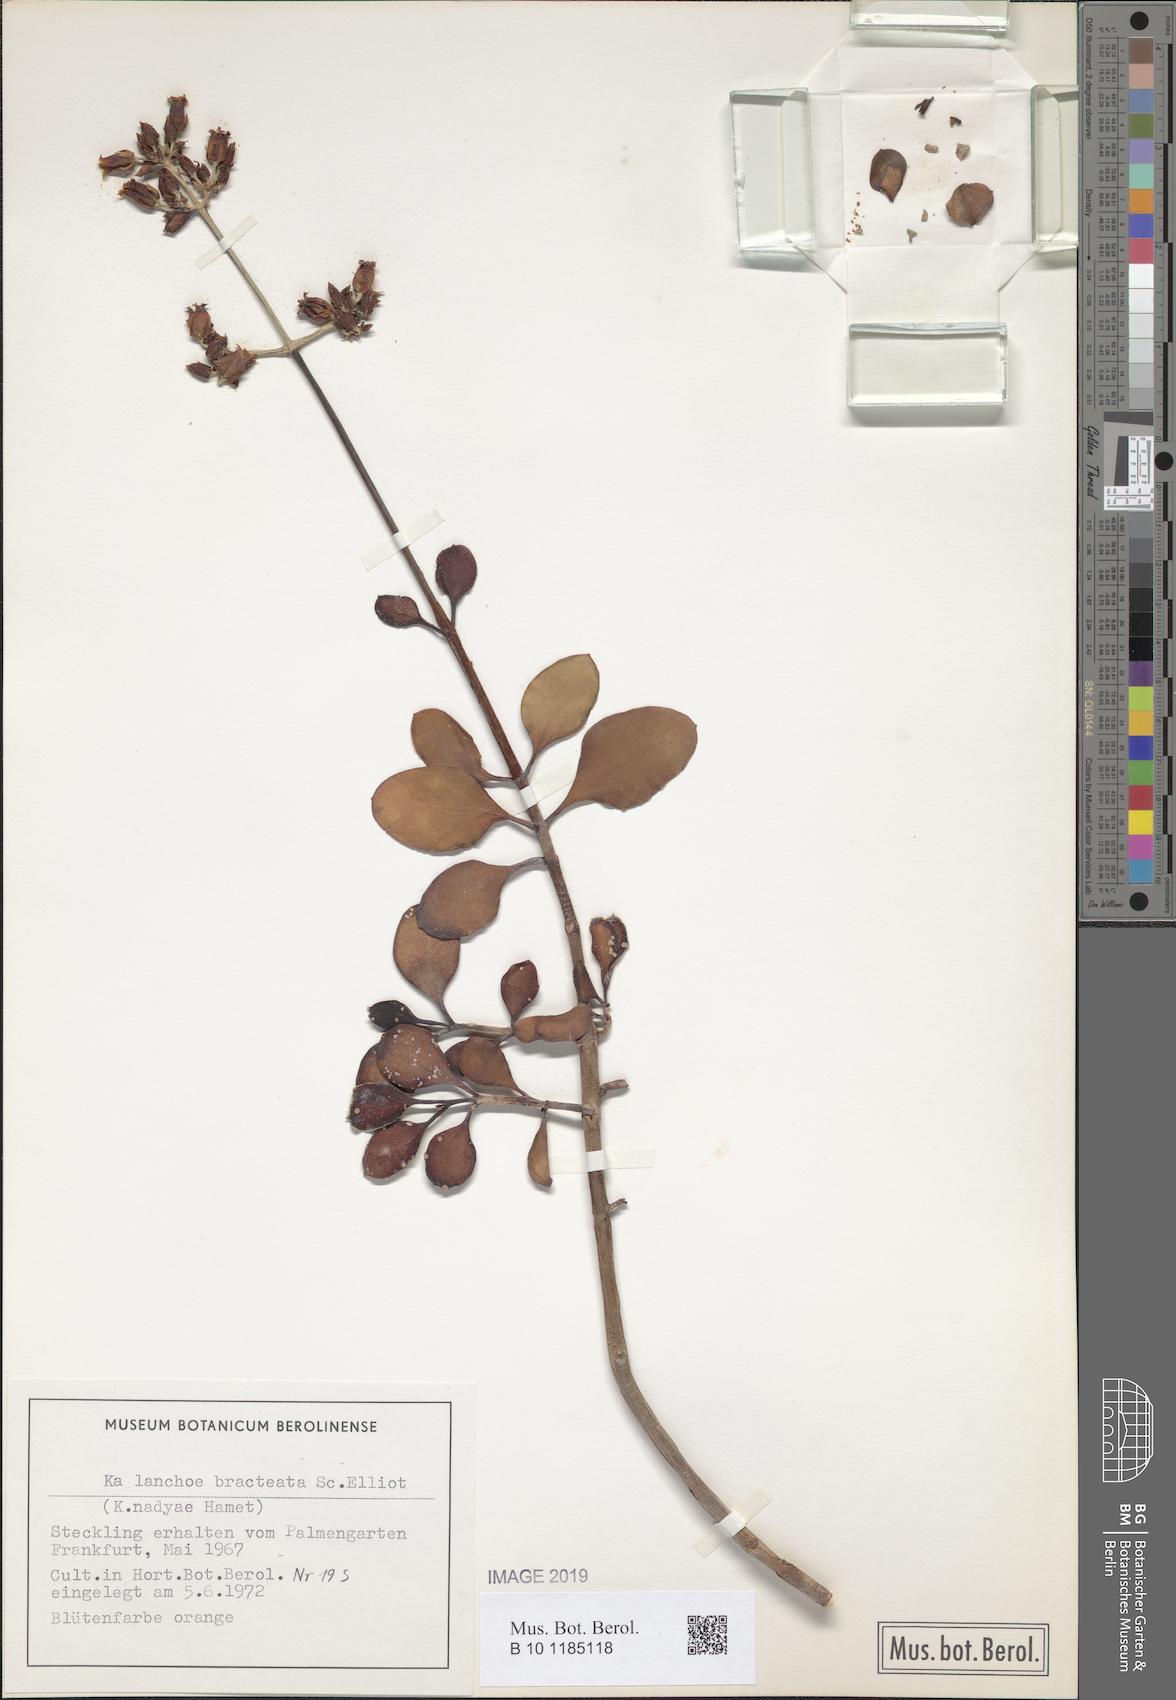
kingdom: Plantae
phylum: Tracheophyta
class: Magnoliopsida
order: Saxifragales
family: Crassulaceae
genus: Kalanchoe
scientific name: Kalanchoe bracteata
